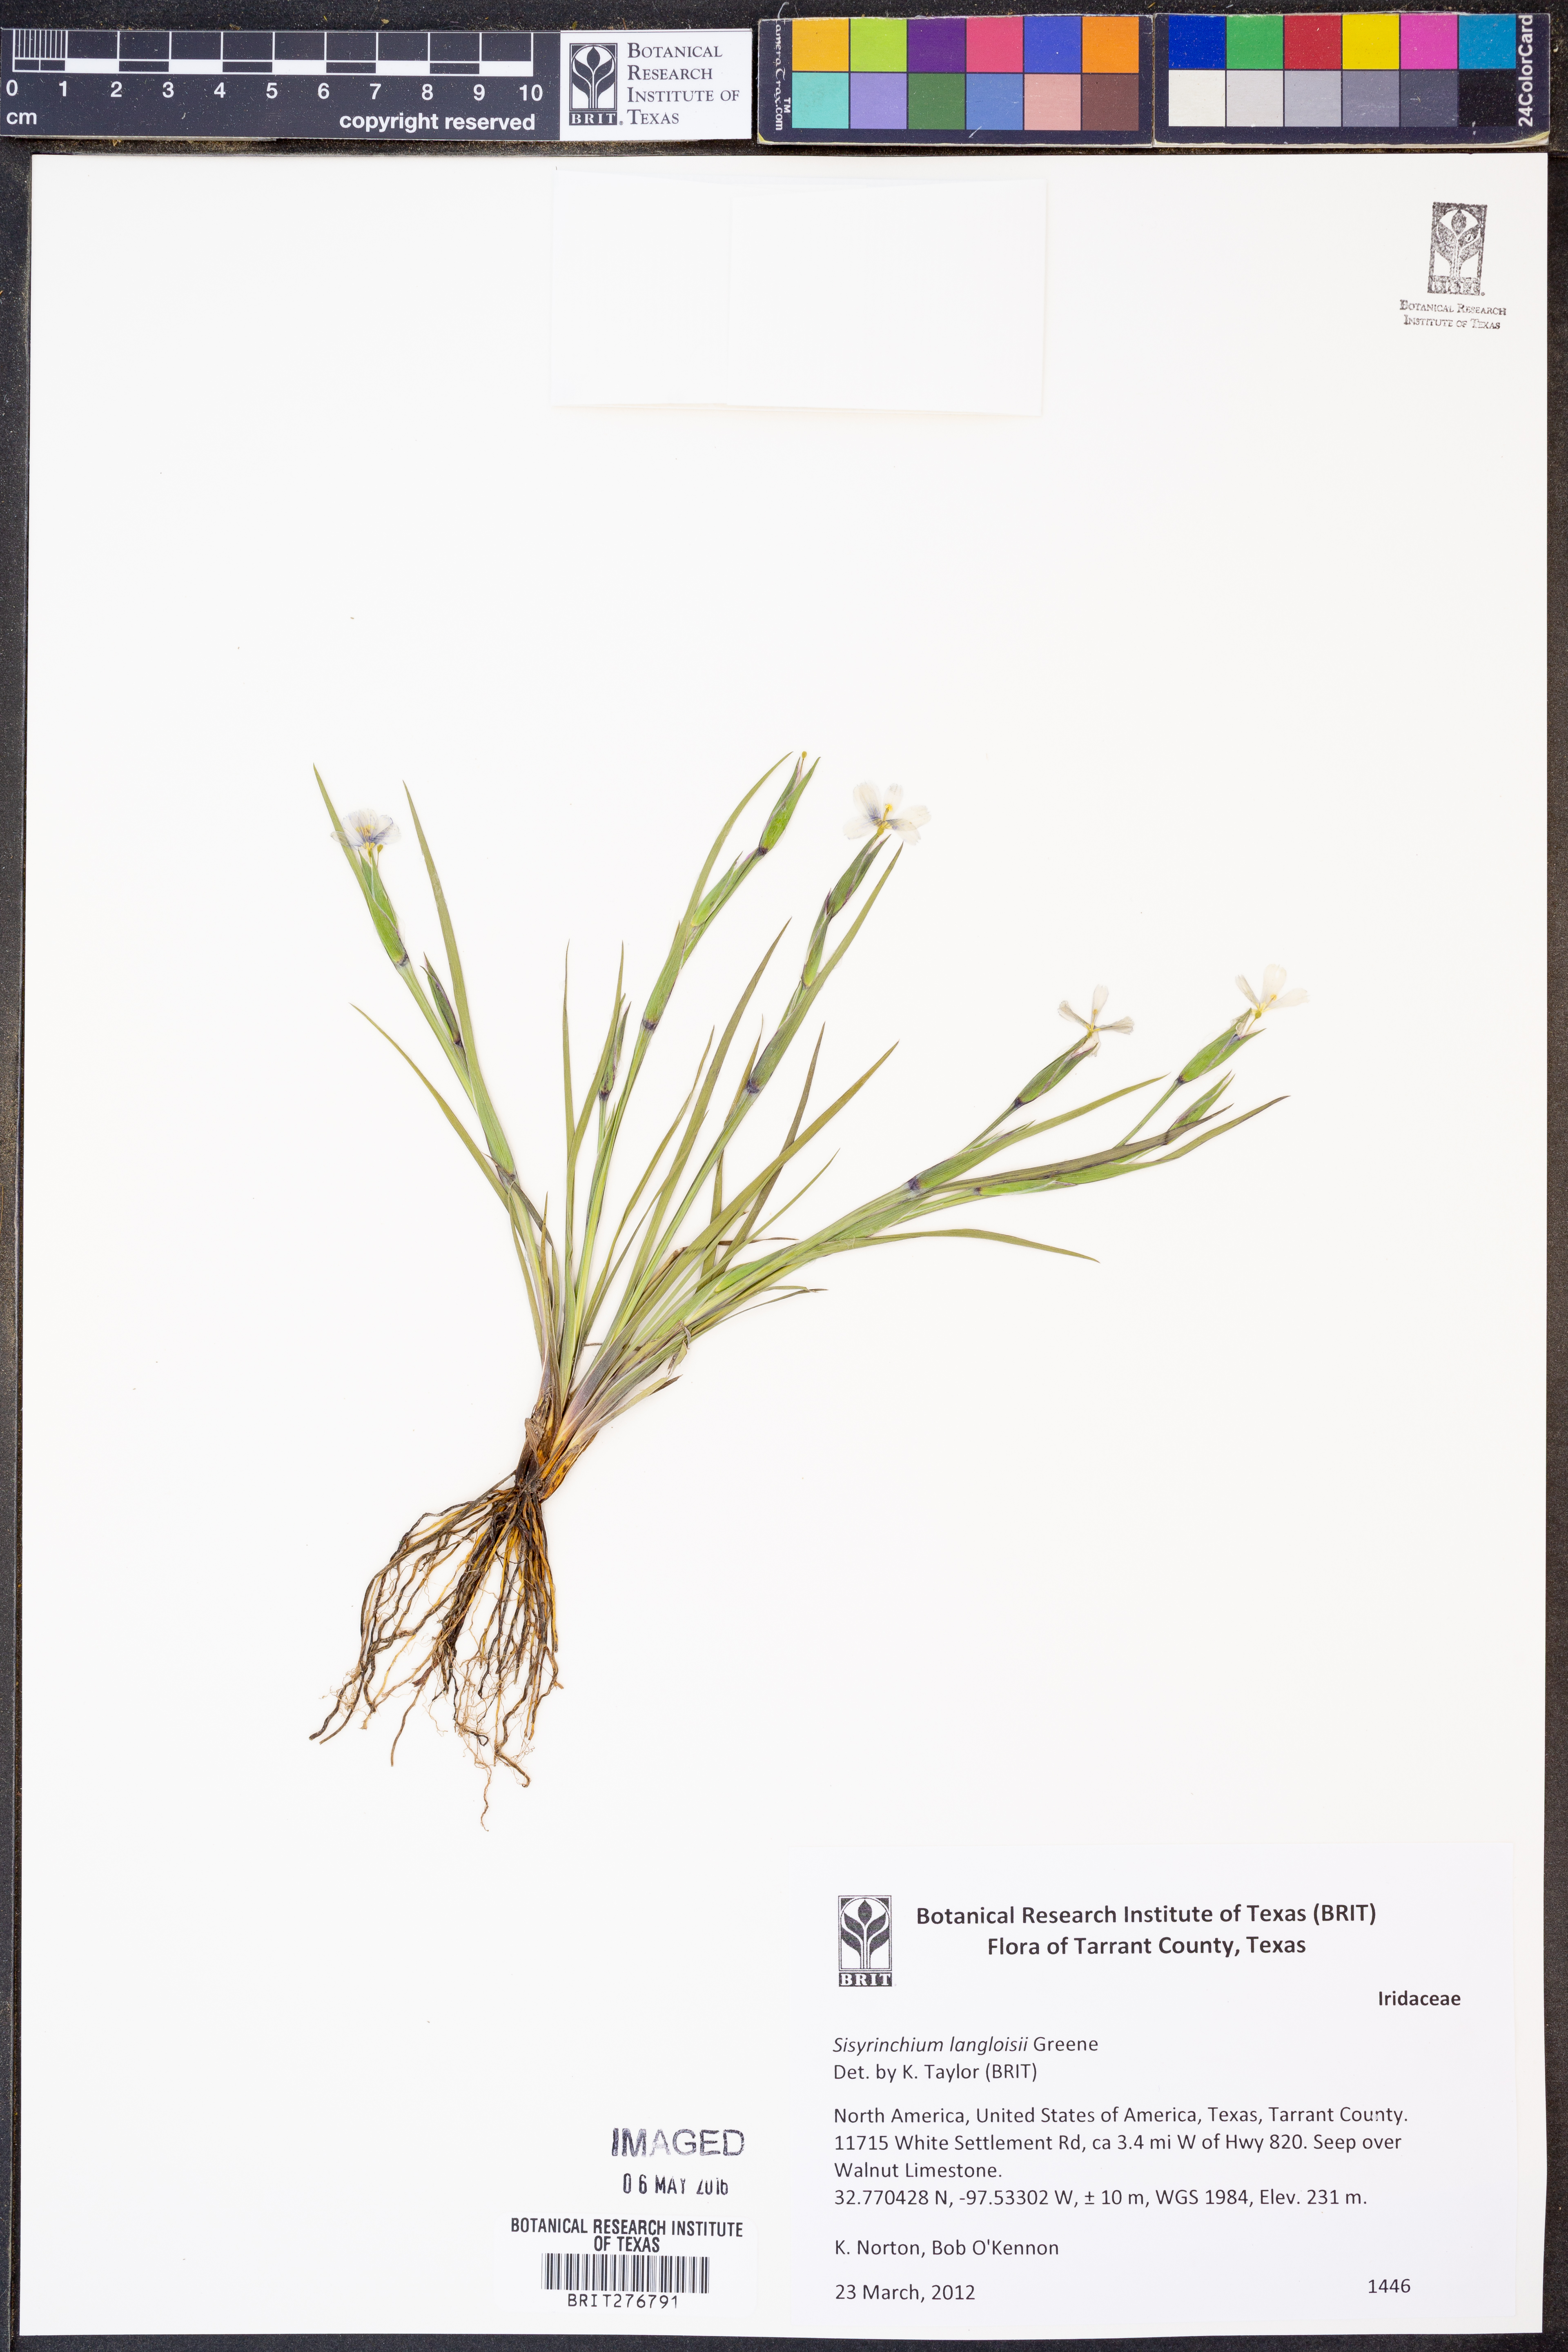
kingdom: Plantae
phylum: Tracheophyta
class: Liliopsida
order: Asparagales
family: Iridaceae
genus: Sisyrinchium
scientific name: Sisyrinchium langloisii
